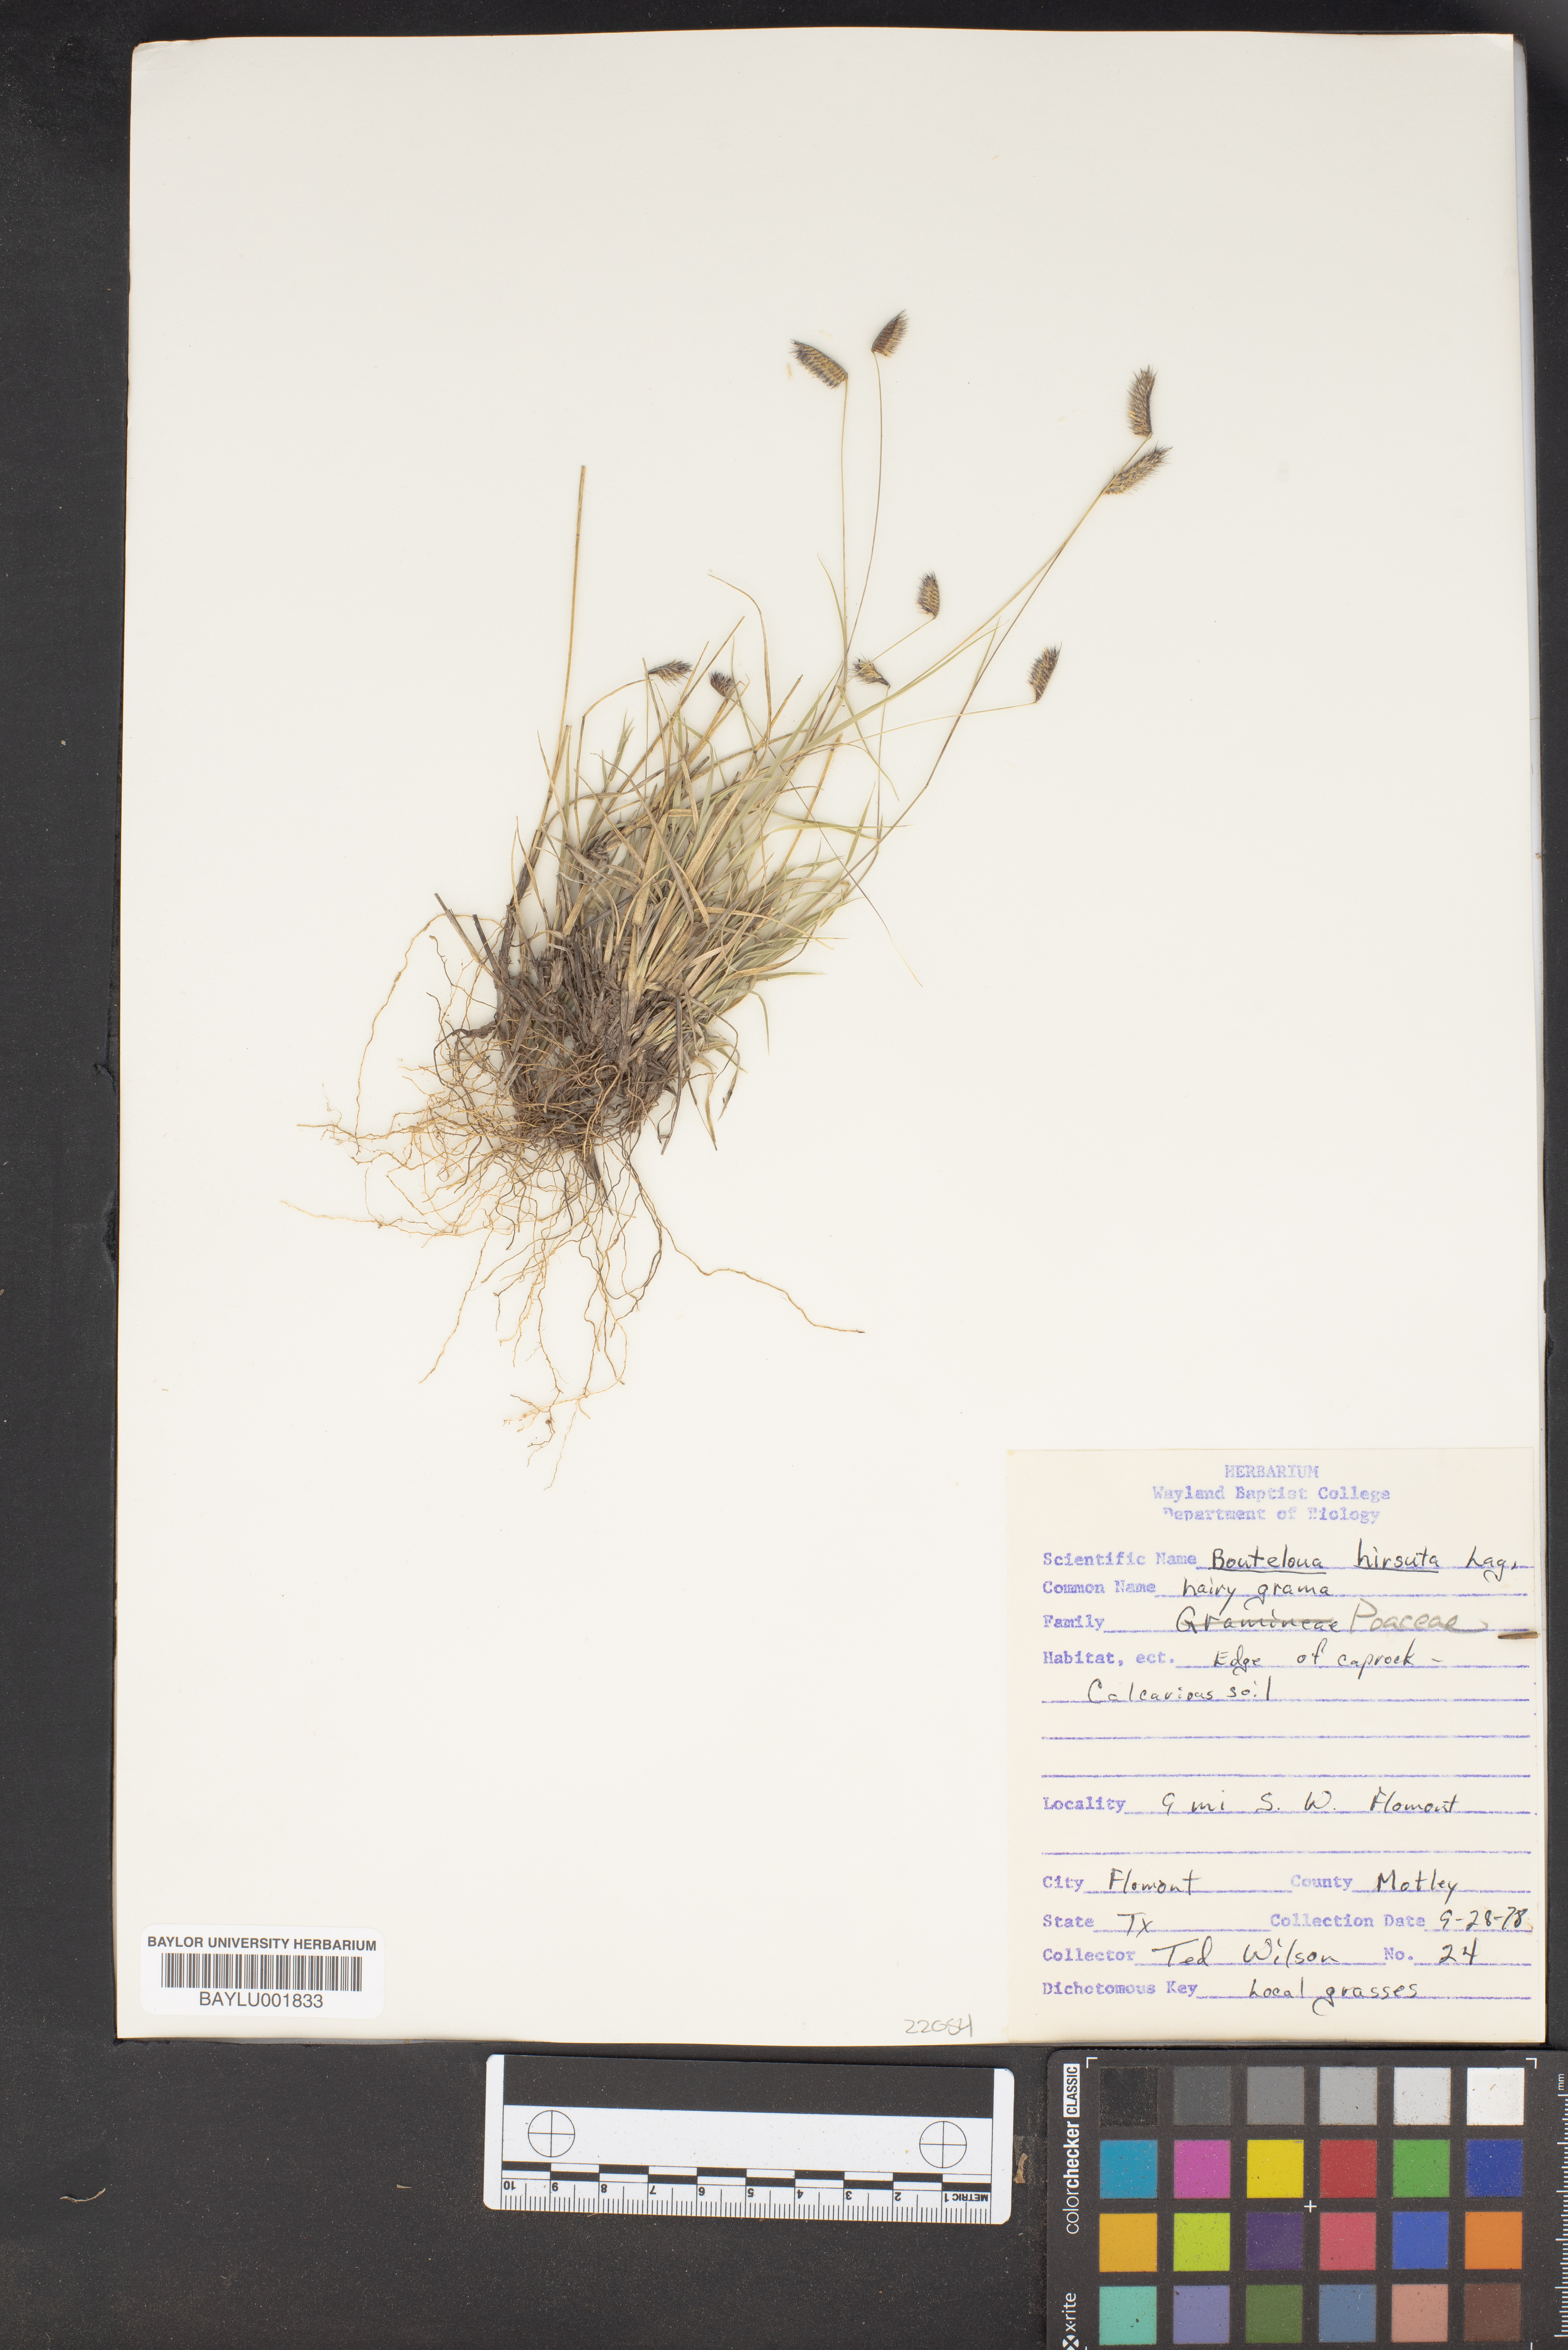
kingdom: Plantae
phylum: Tracheophyta
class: Liliopsida
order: Poales
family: Poaceae
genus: Bouteloua
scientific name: Bouteloua hirsuta
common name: Hairy grama
